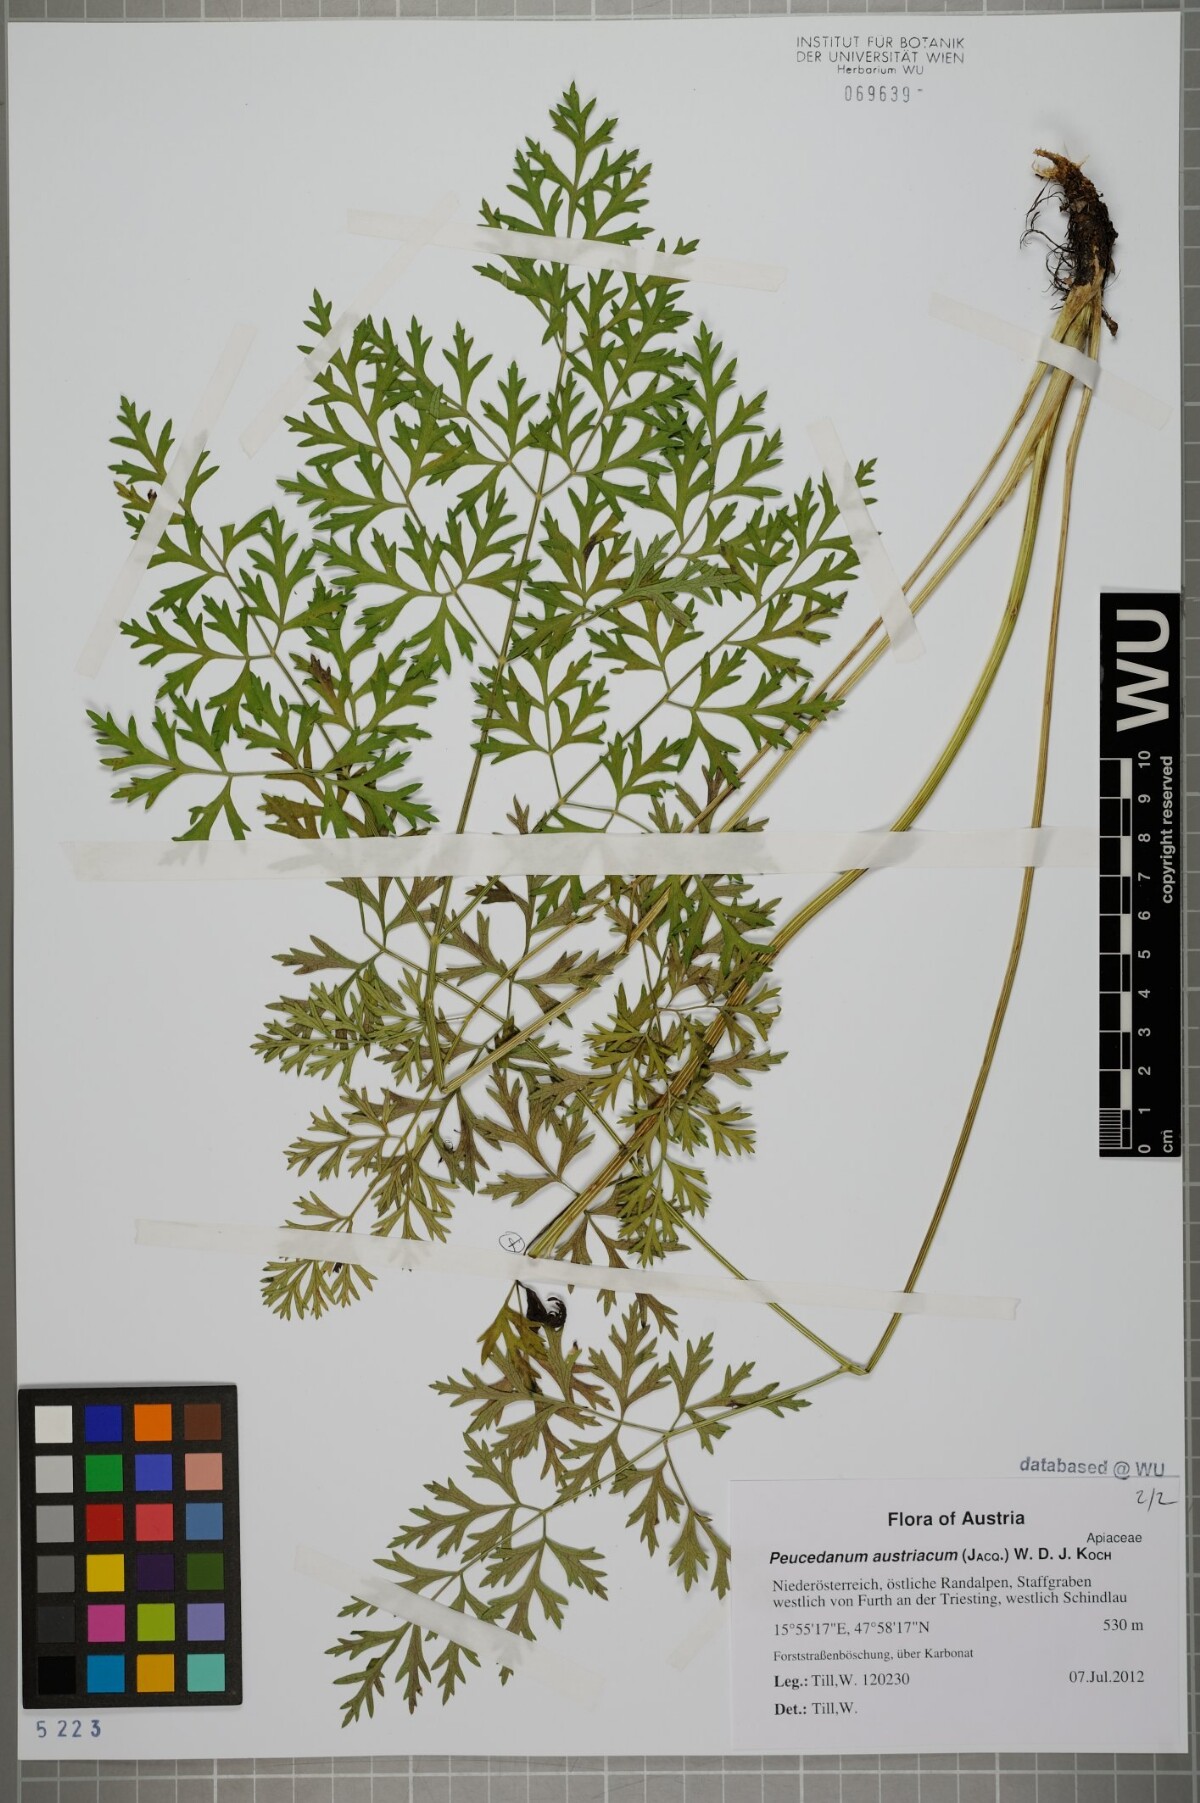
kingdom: Plantae
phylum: Tracheophyta
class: Magnoliopsida
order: Apiales
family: Apiaceae
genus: Peucedanum
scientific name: Peucedanum austriacum
